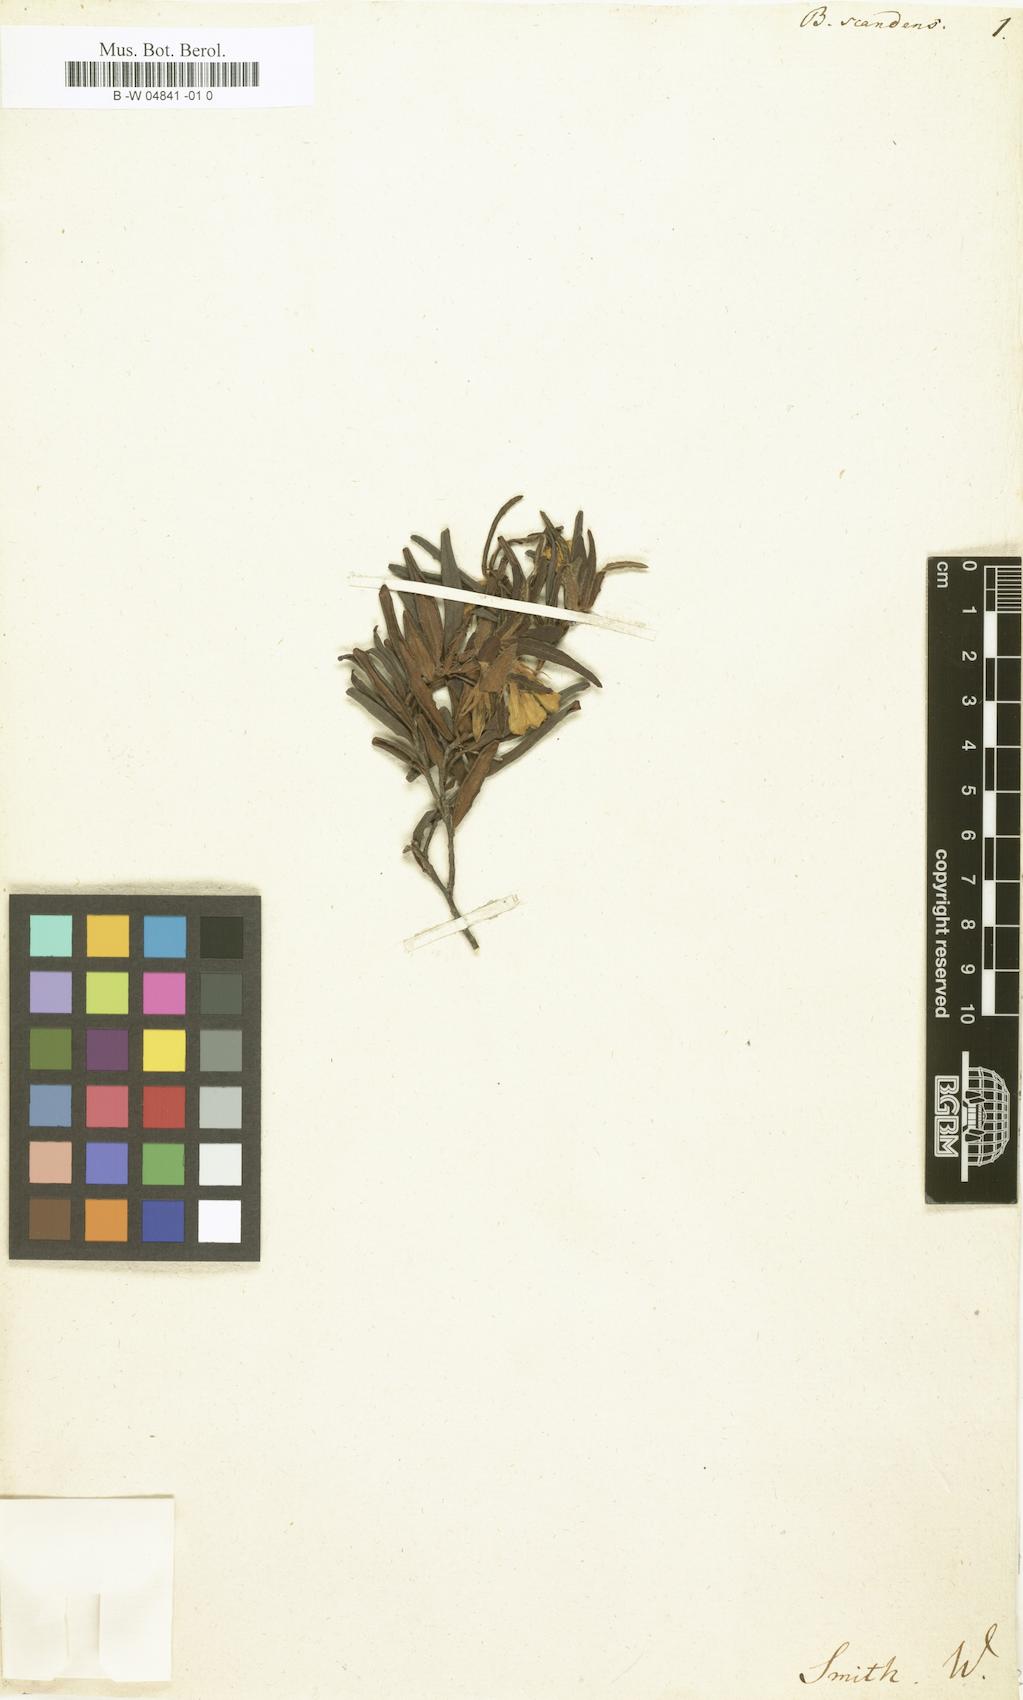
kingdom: Plantae
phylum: Tracheophyta
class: Magnoliopsida
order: Apiales
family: Pittosporaceae
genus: Billardiera
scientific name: Billardiera scandens
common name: Apple-berry
